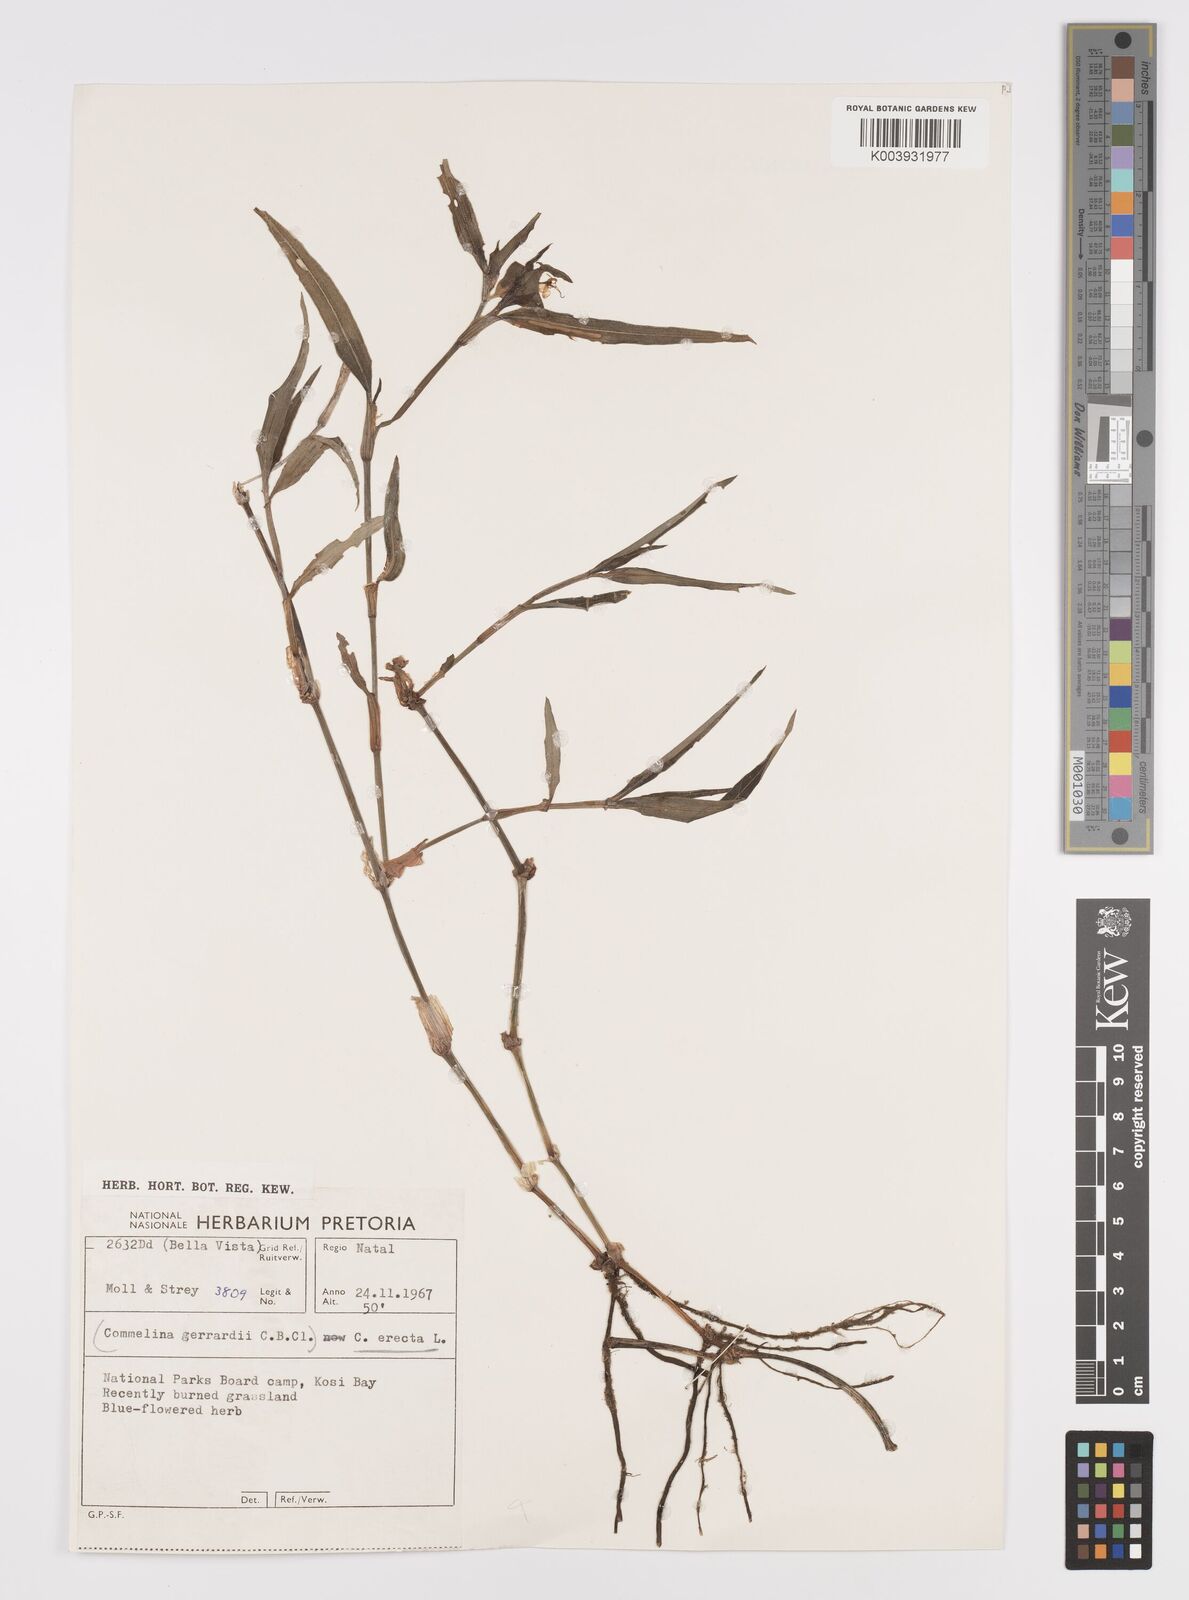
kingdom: Plantae
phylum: Tracheophyta
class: Liliopsida
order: Commelinales
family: Commelinaceae
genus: Commelina
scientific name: Commelina erecta
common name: Blousel blommetjie
